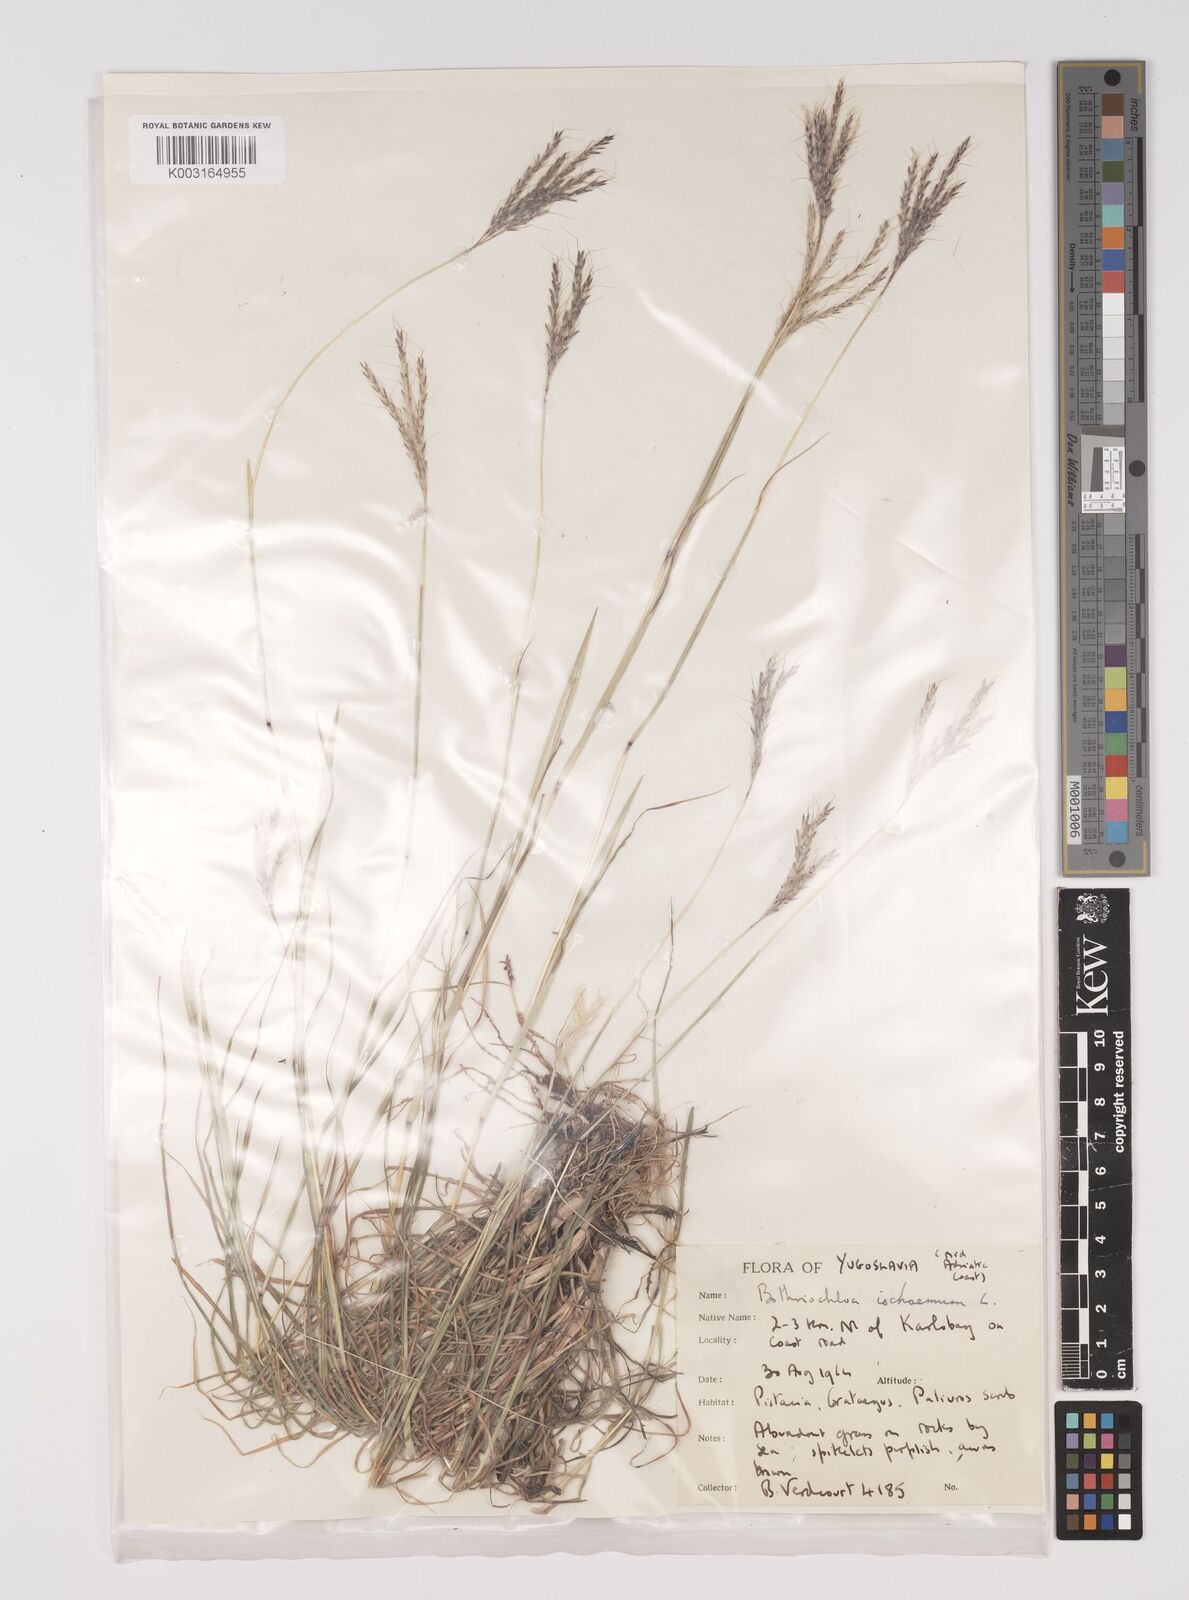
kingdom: Plantae
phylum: Tracheophyta
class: Liliopsida
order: Poales
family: Poaceae
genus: Bothriochloa
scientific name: Bothriochloa ischaemum
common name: Yellow bluestem
